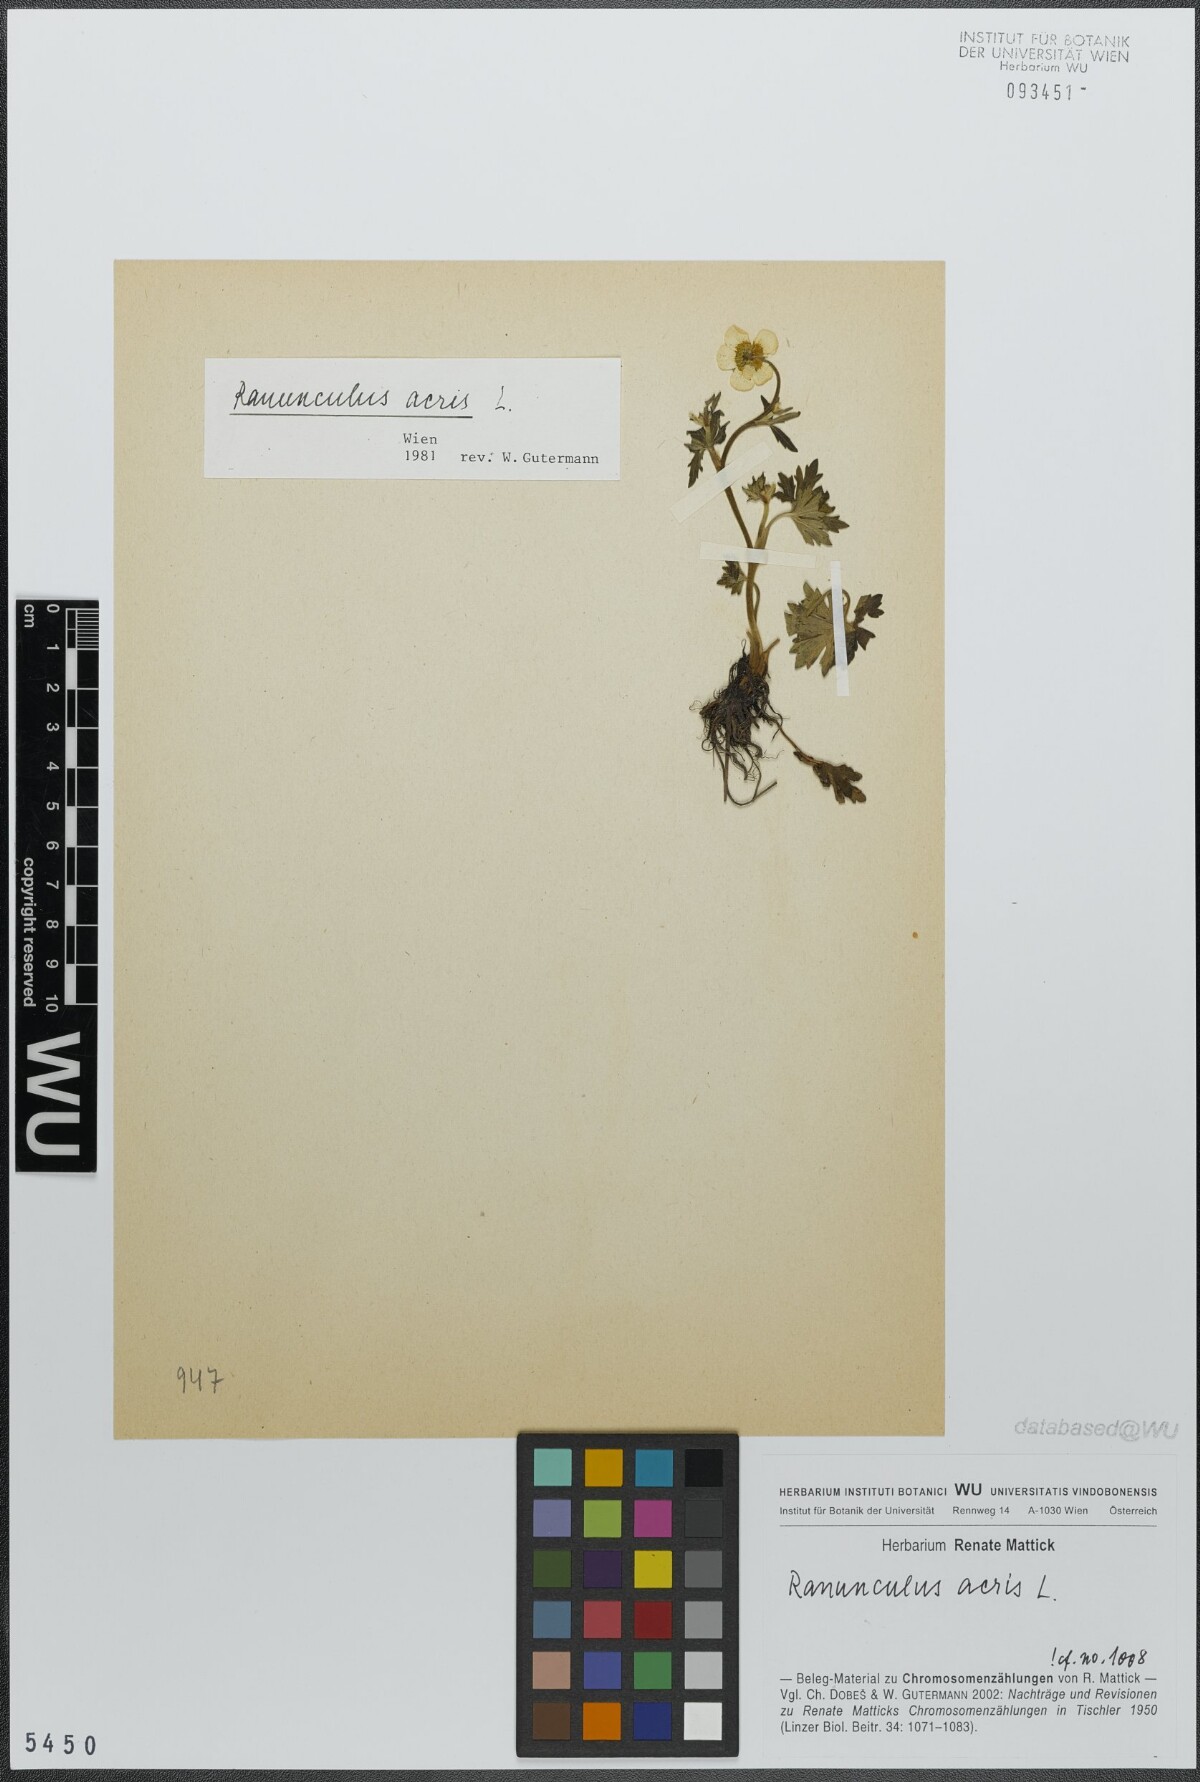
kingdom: Plantae
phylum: Tracheophyta
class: Magnoliopsida
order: Ranunculales
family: Ranunculaceae
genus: Ranunculus
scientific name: Ranunculus acris
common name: Meadow buttercup
